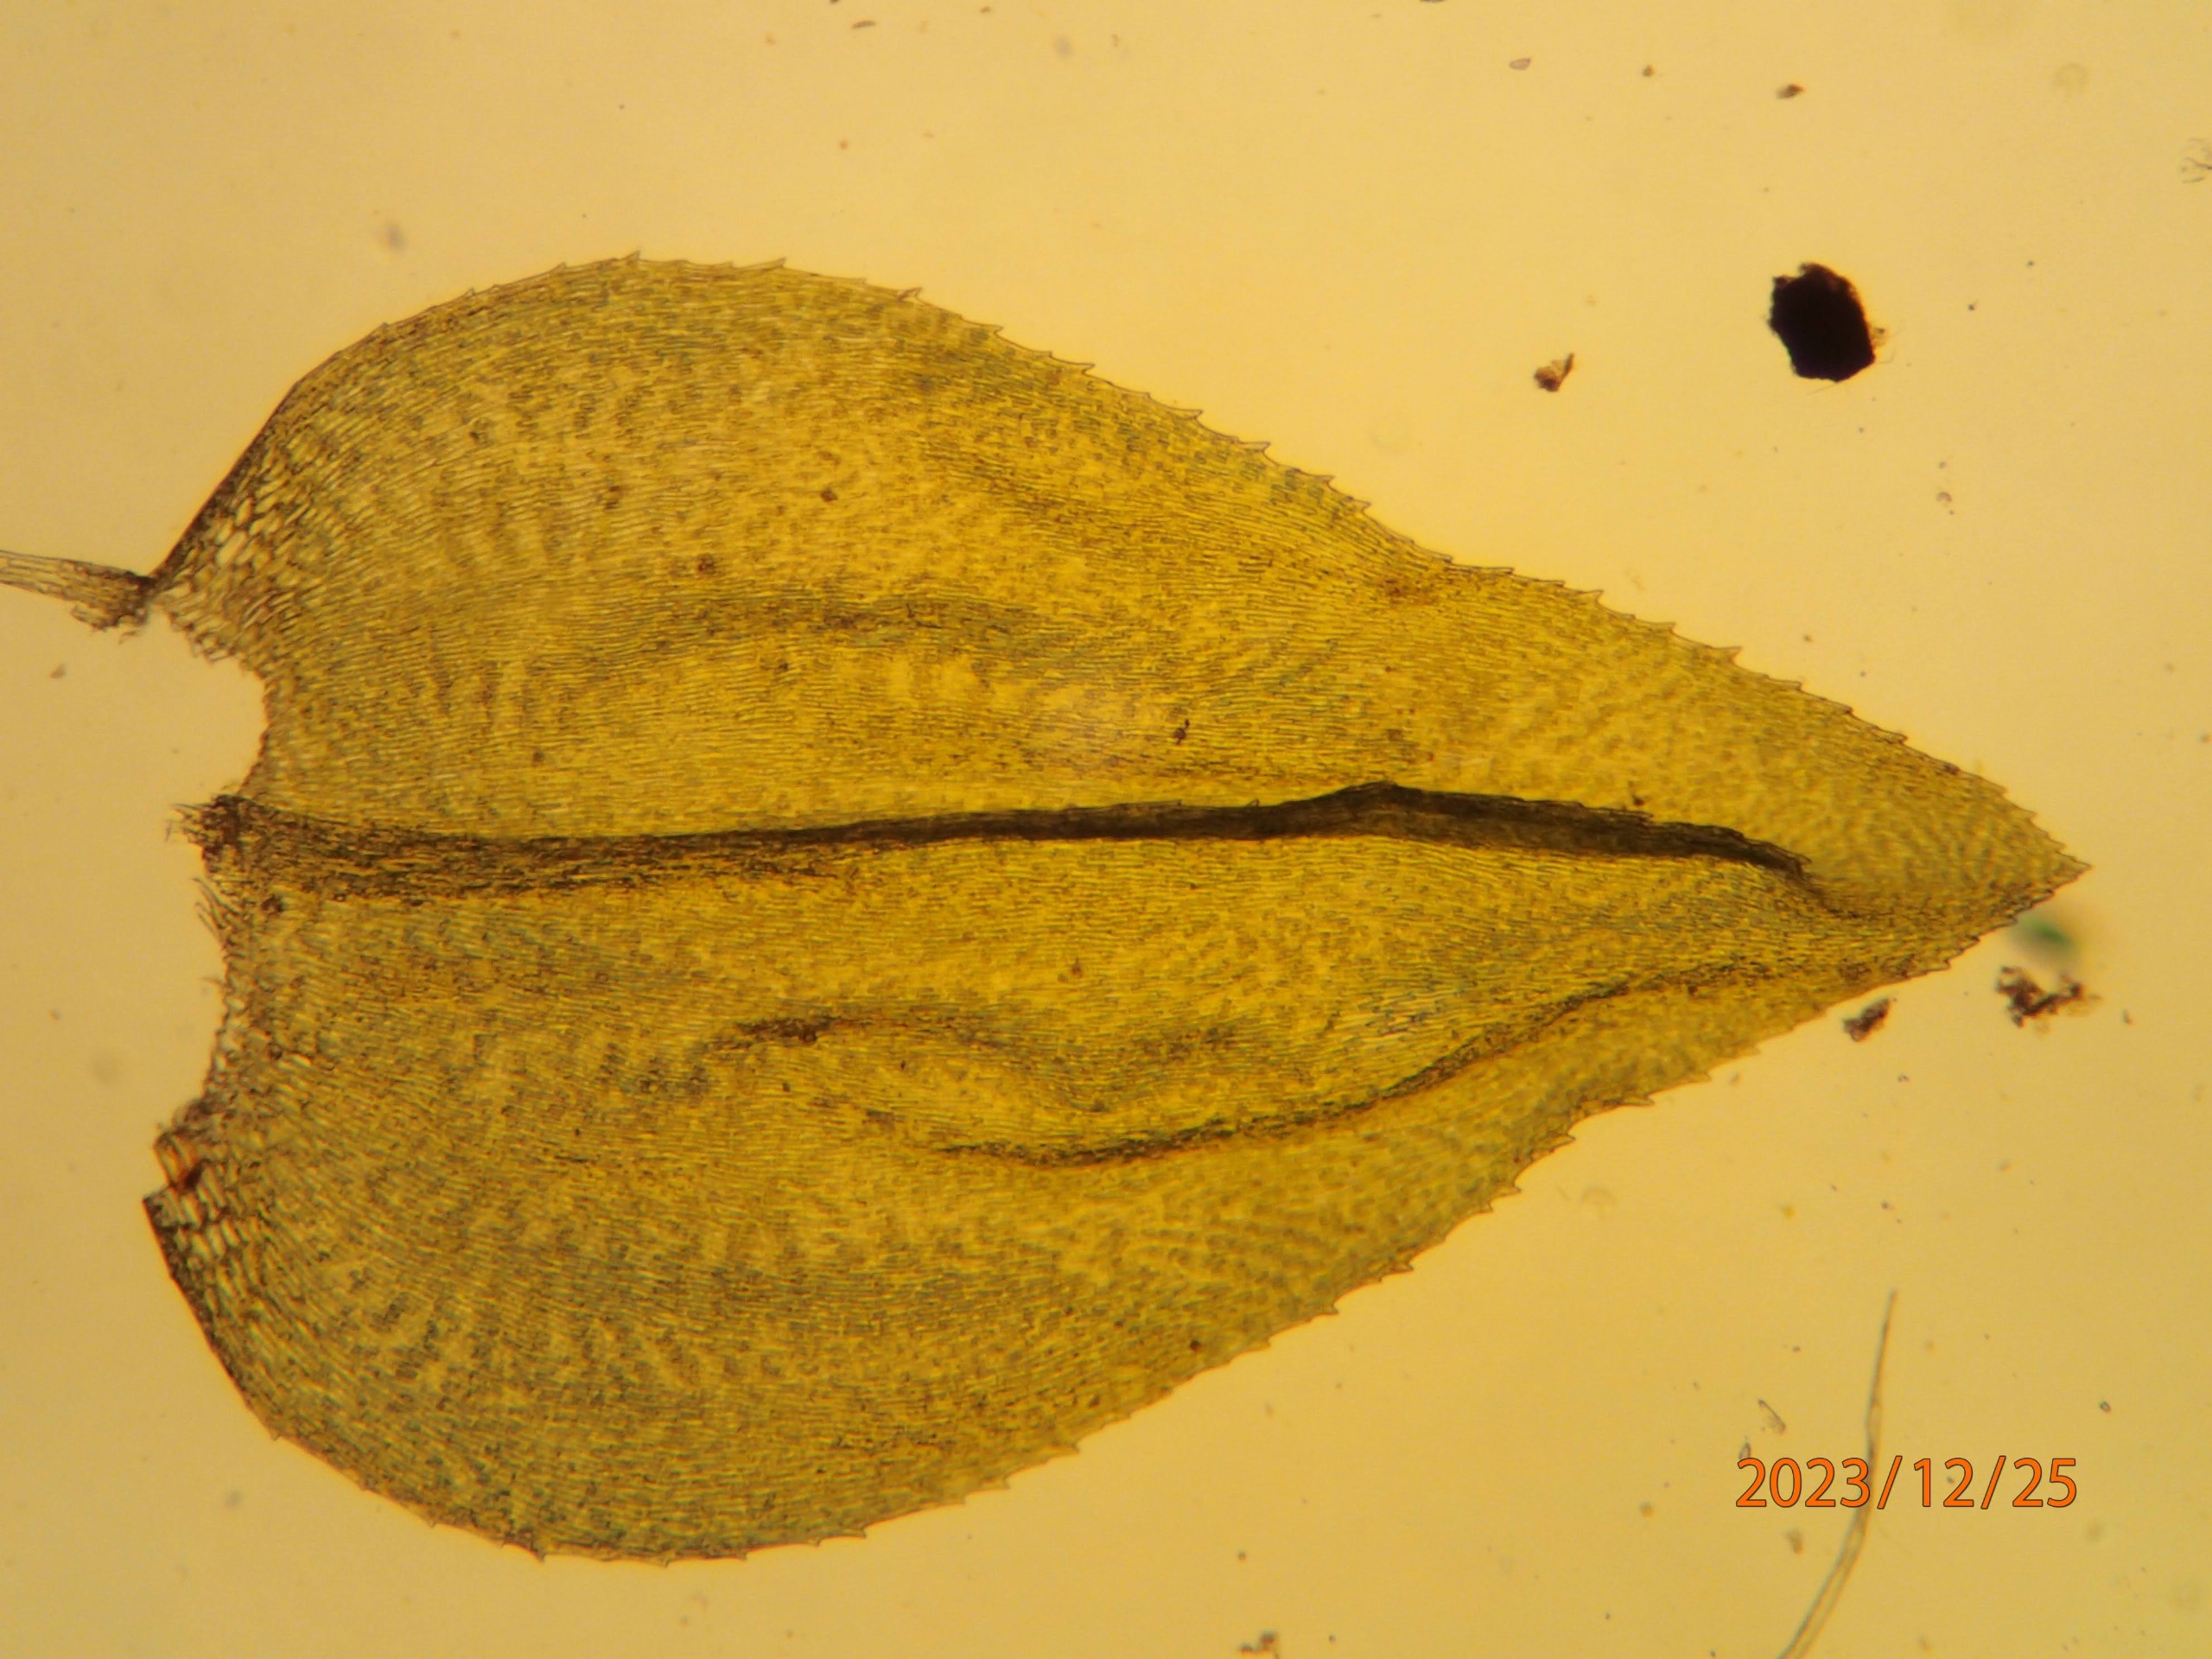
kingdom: Plantae
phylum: Bryophyta
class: Bryopsida
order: Hypnales
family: Brachytheciaceae
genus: Eurhynchium
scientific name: Eurhynchium angustirete
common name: Stor næbmos
